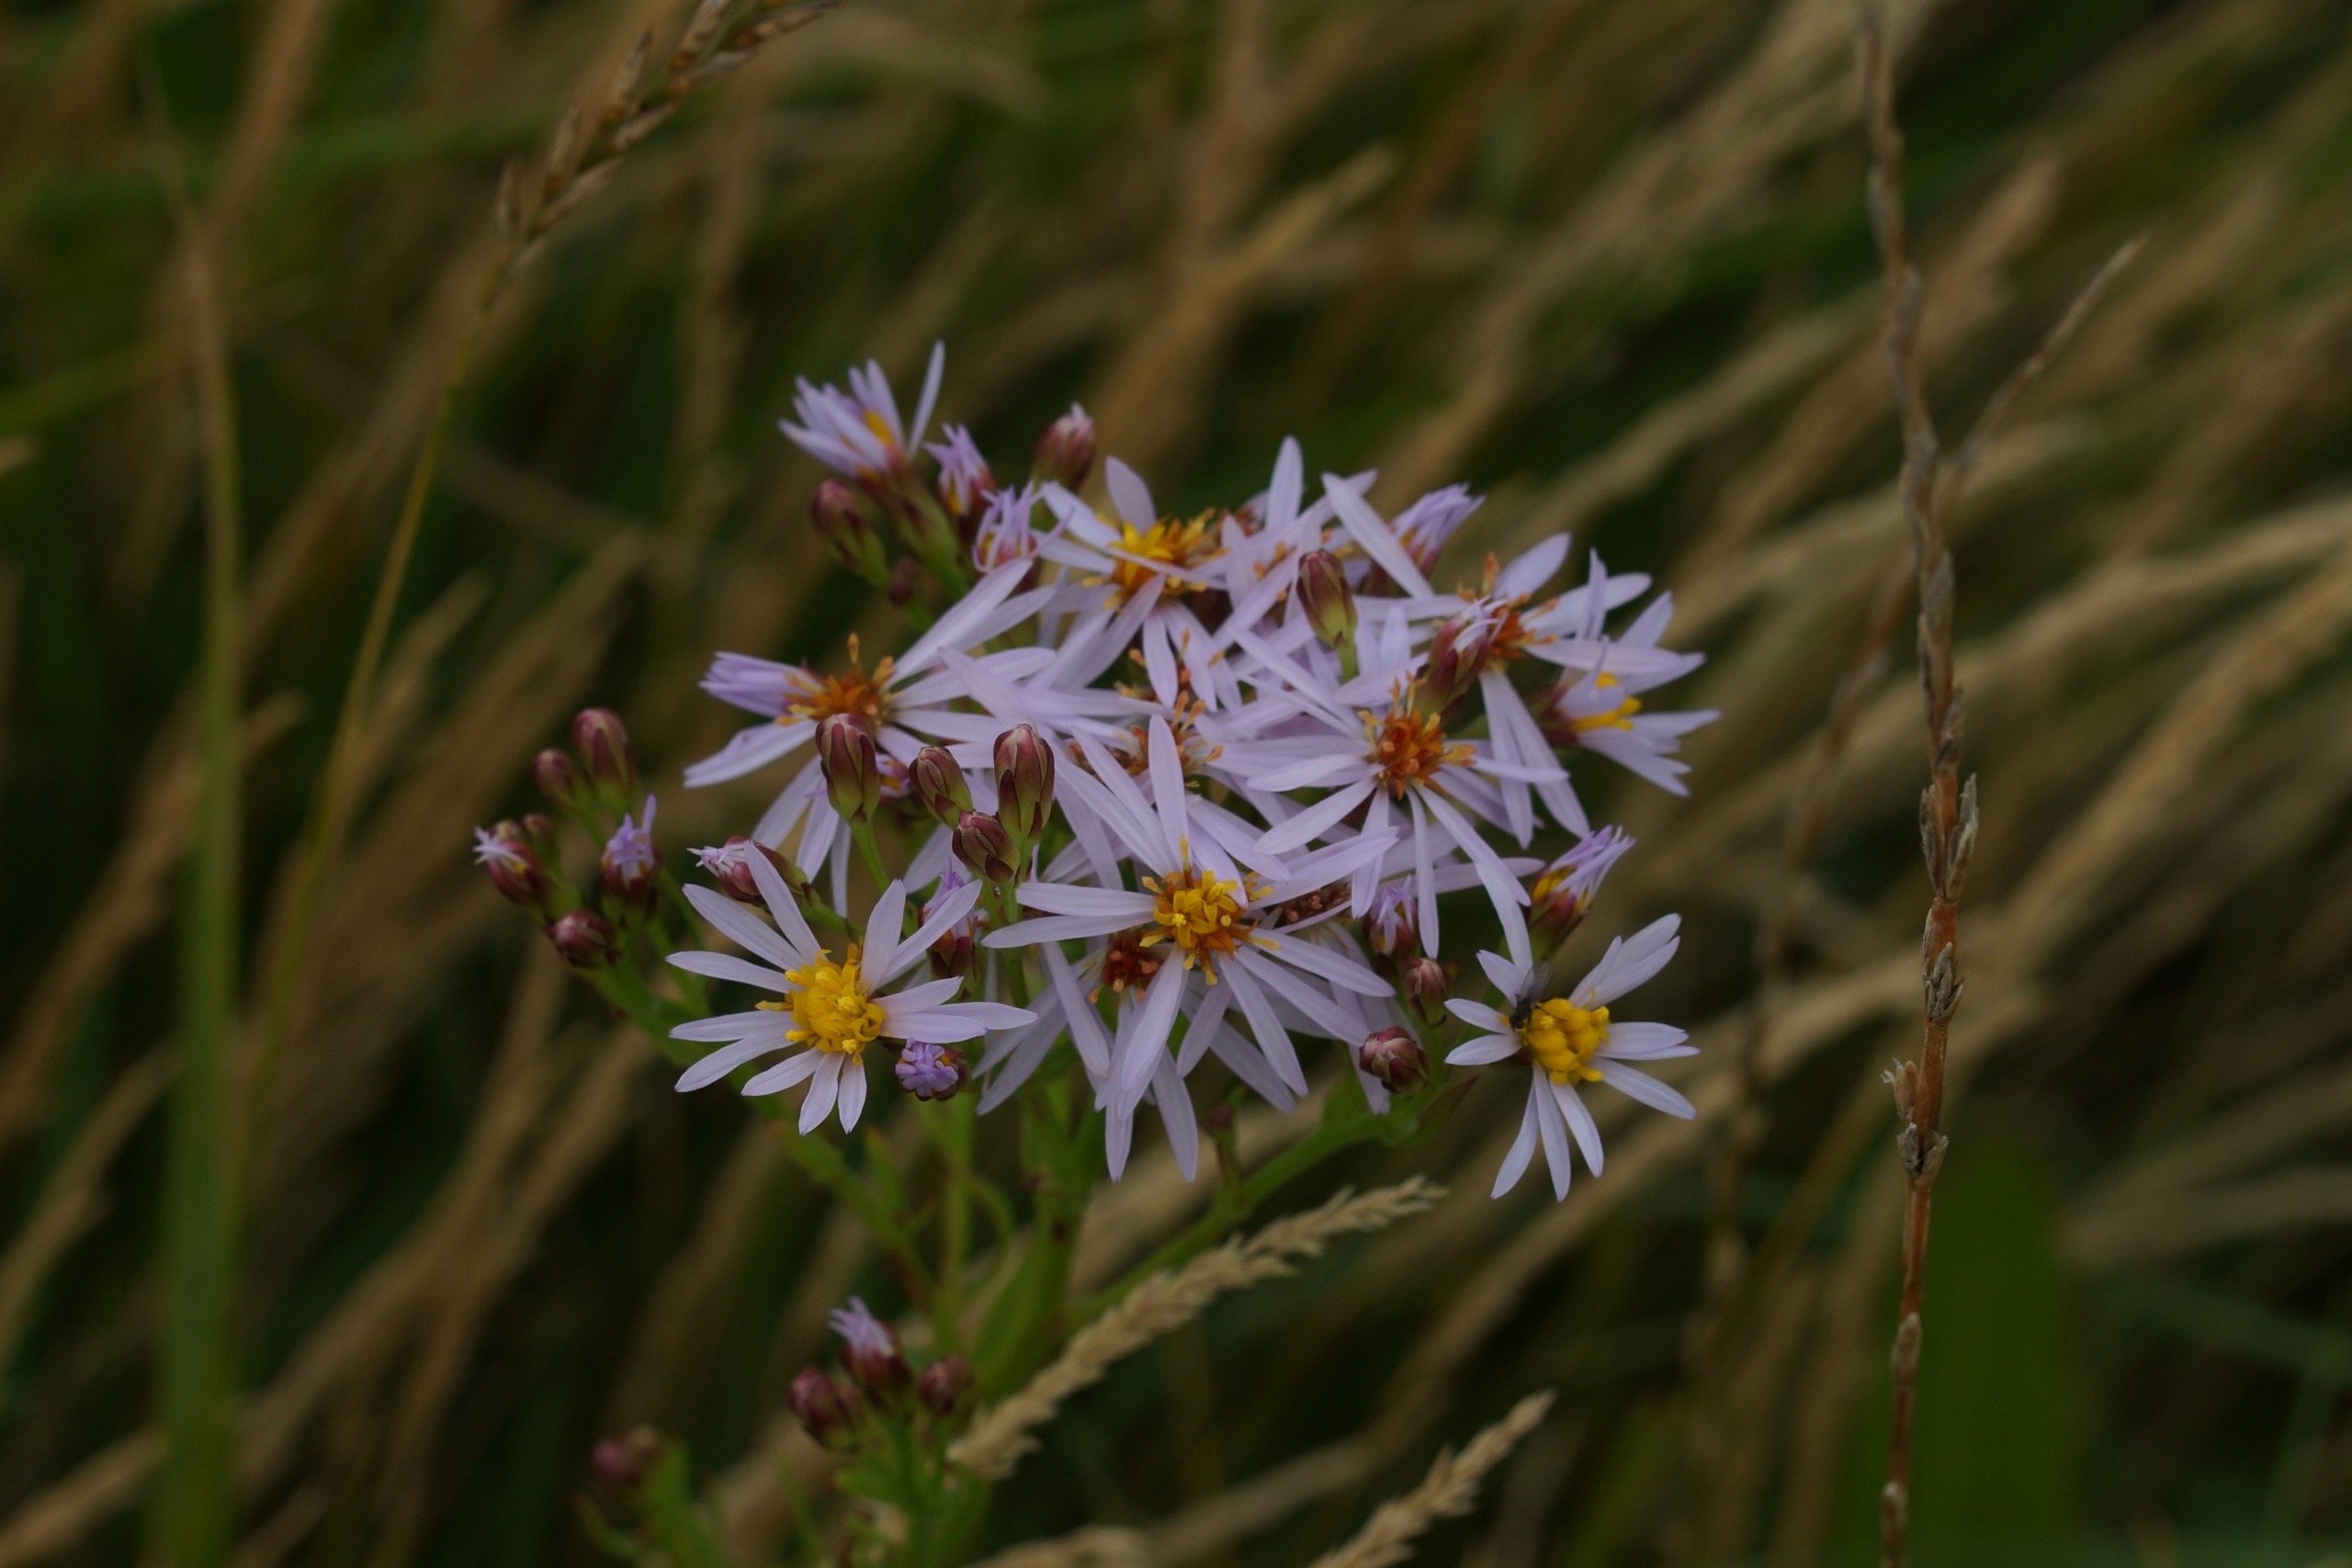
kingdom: Plantae
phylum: Tracheophyta
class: Magnoliopsida
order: Asterales
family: Asteraceae
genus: Tripolium
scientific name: Tripolium pannonicum
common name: Strandasters
